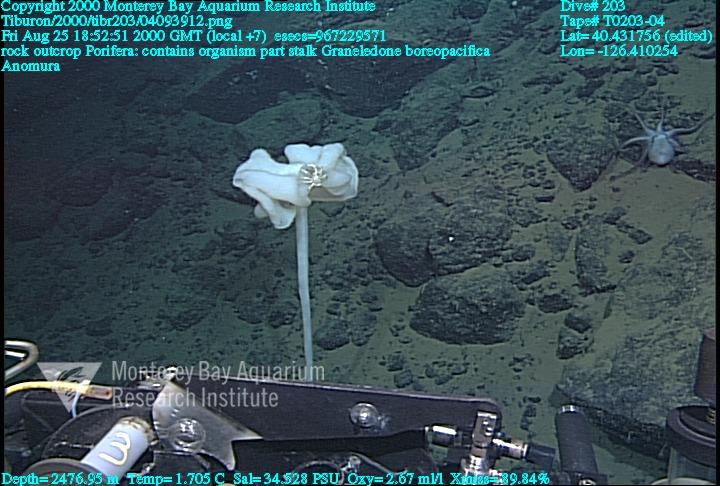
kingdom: Animalia
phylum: Porifera
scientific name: Porifera
